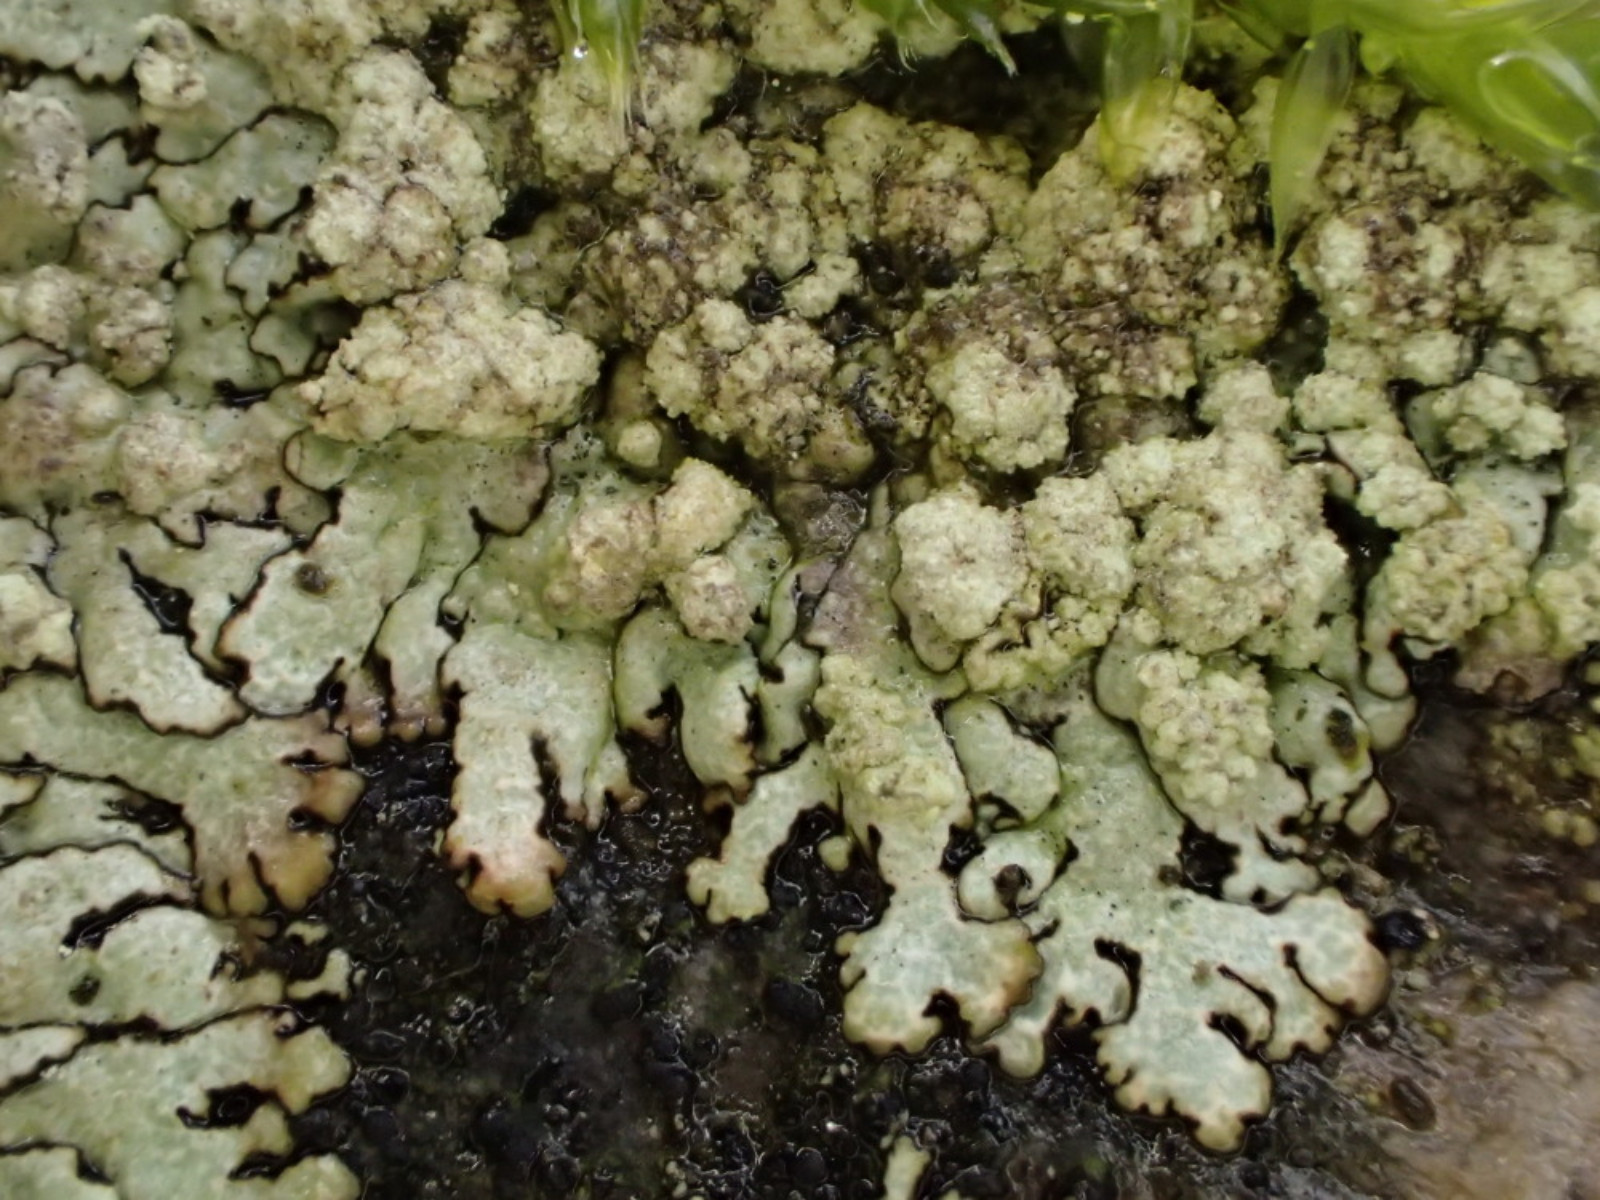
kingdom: Fungi
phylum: Ascomycota
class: Lecanoromycetes
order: Lecanorales
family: Parmeliaceae
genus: Xanthoparmelia
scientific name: Xanthoparmelia mougeotii
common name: liden skållav
